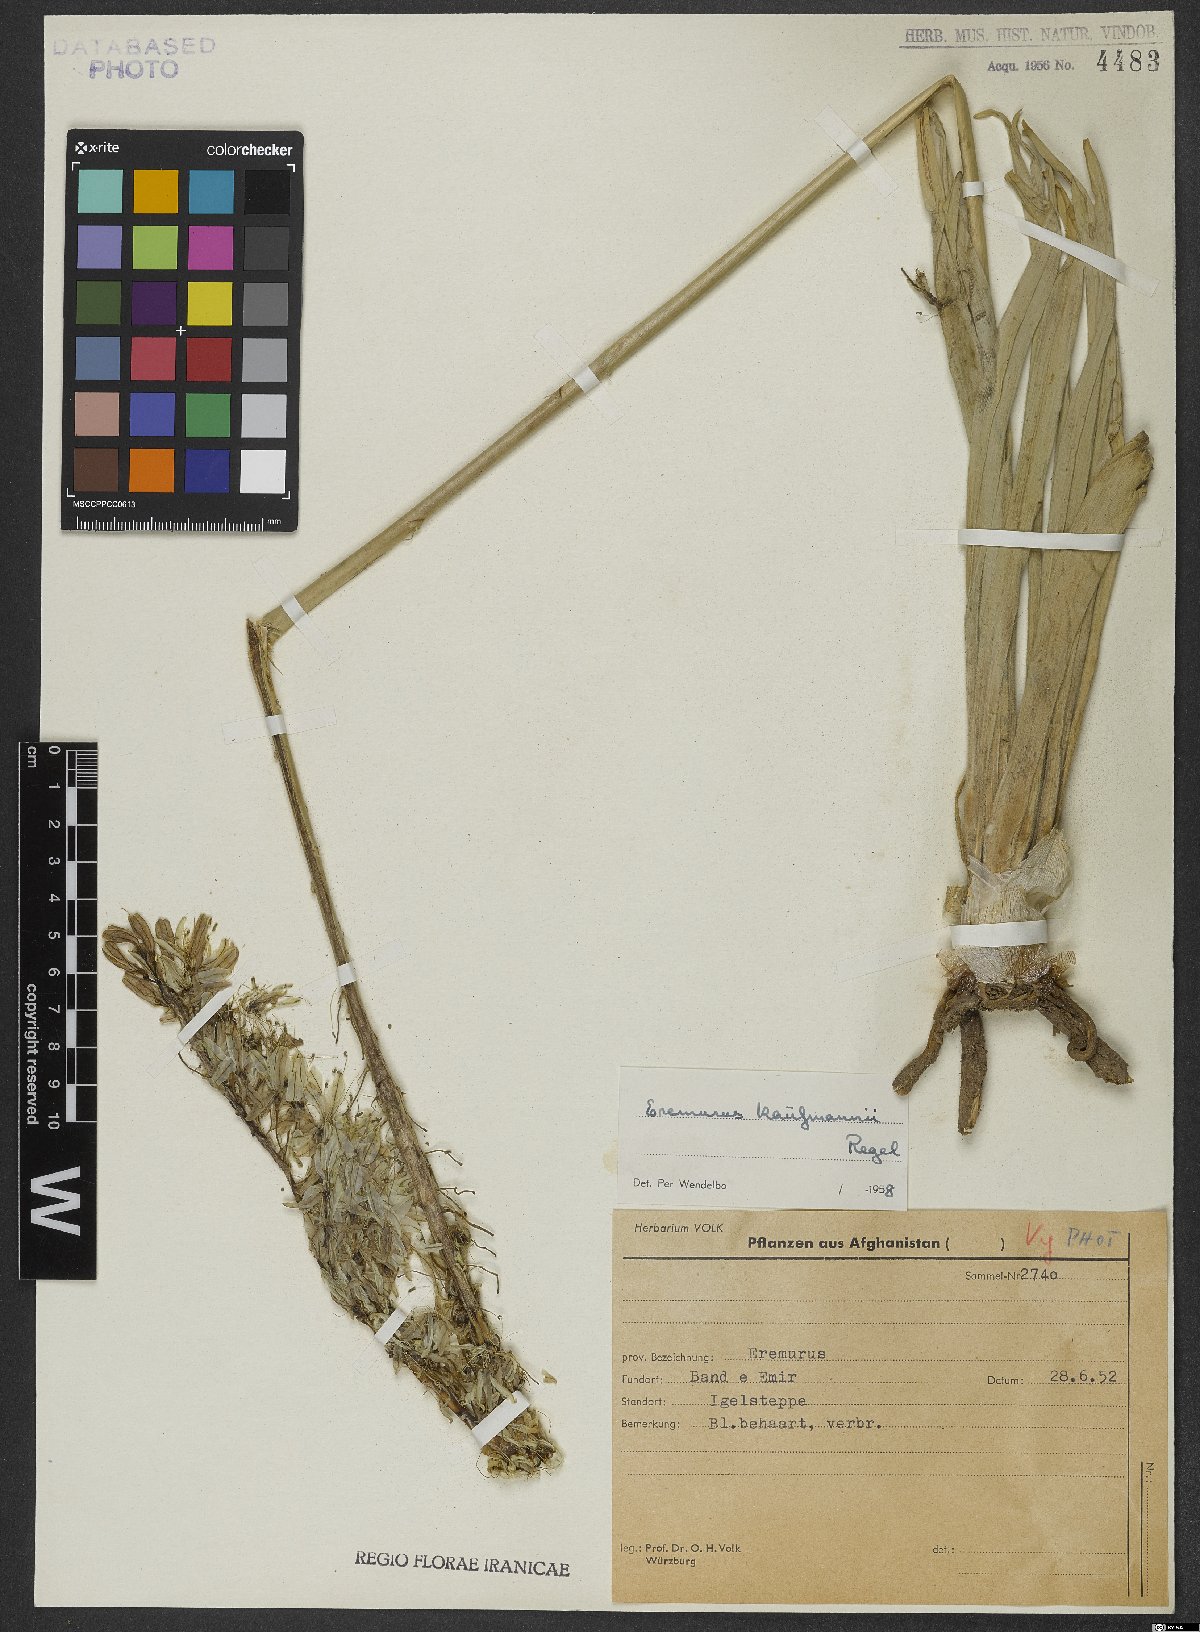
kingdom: Plantae
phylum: Tracheophyta
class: Liliopsida
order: Asparagales
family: Asphodelaceae
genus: Eremurus
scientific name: Eremurus kaufmannii
